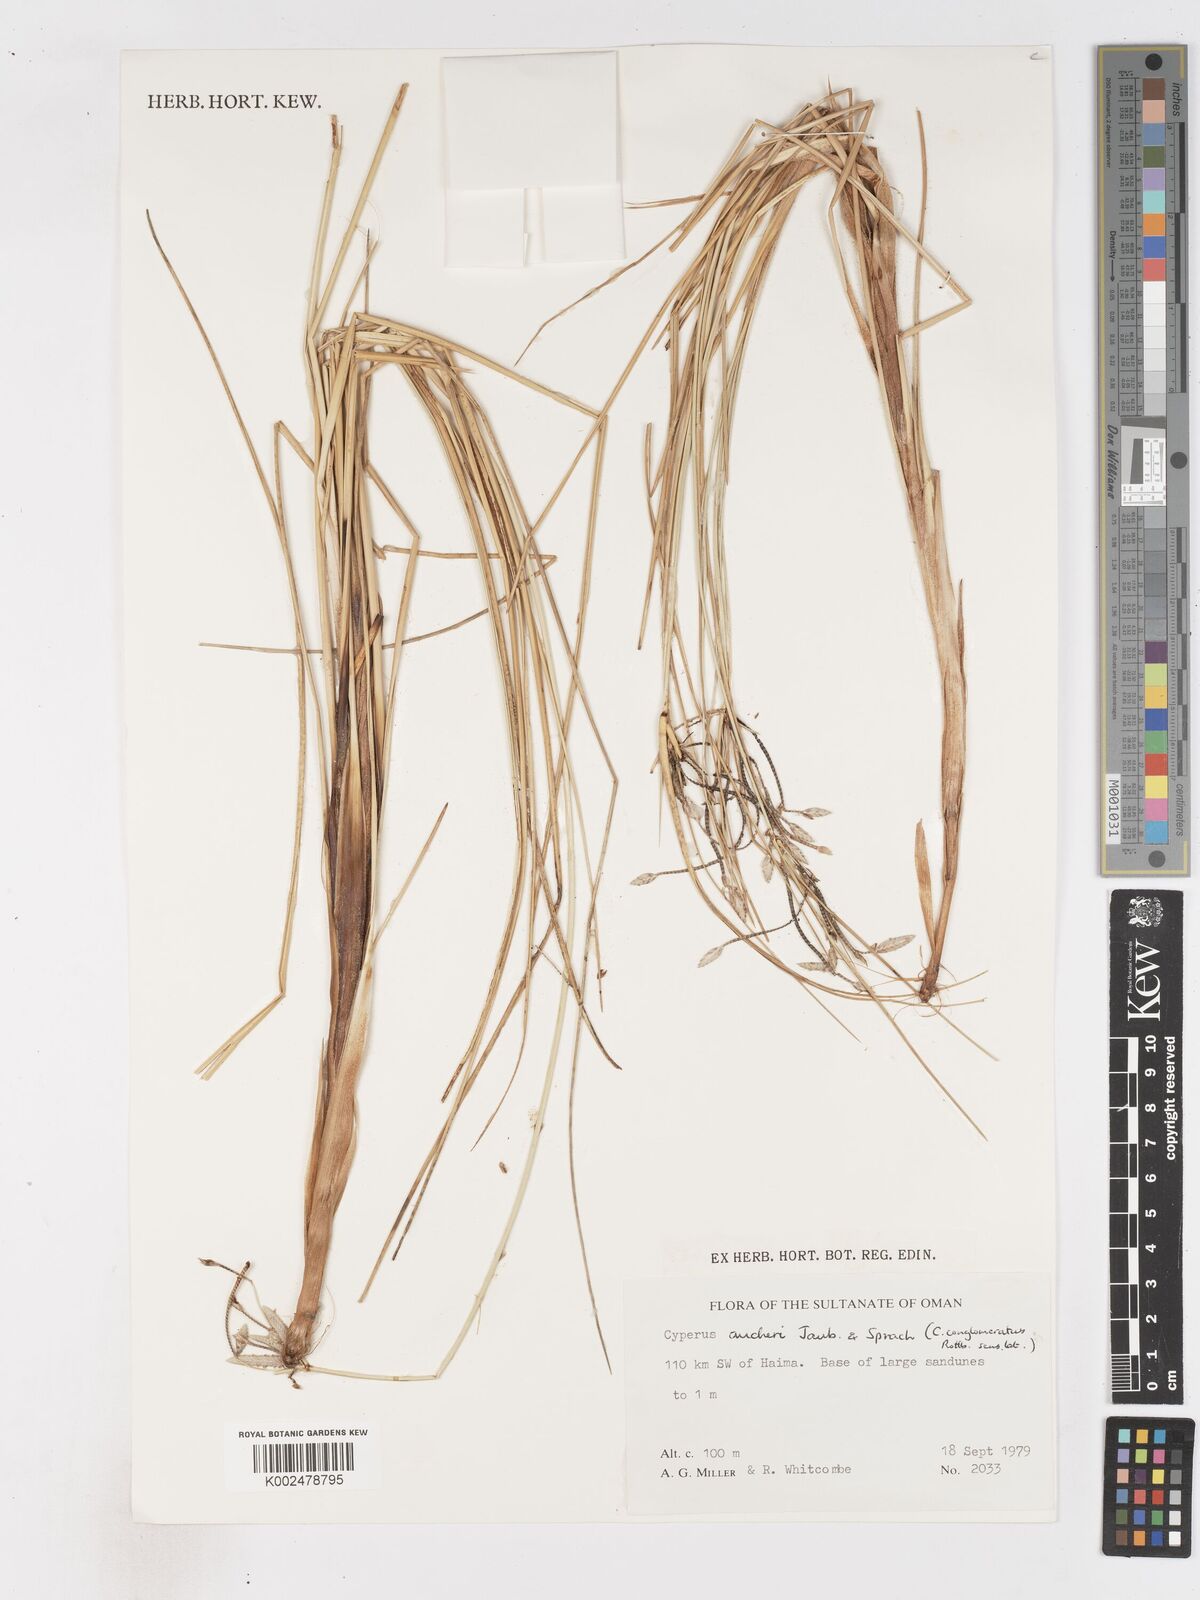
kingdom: Plantae
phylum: Tracheophyta
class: Liliopsida
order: Poales
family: Cyperaceae
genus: Cyperus
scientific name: Cyperus aucheri
